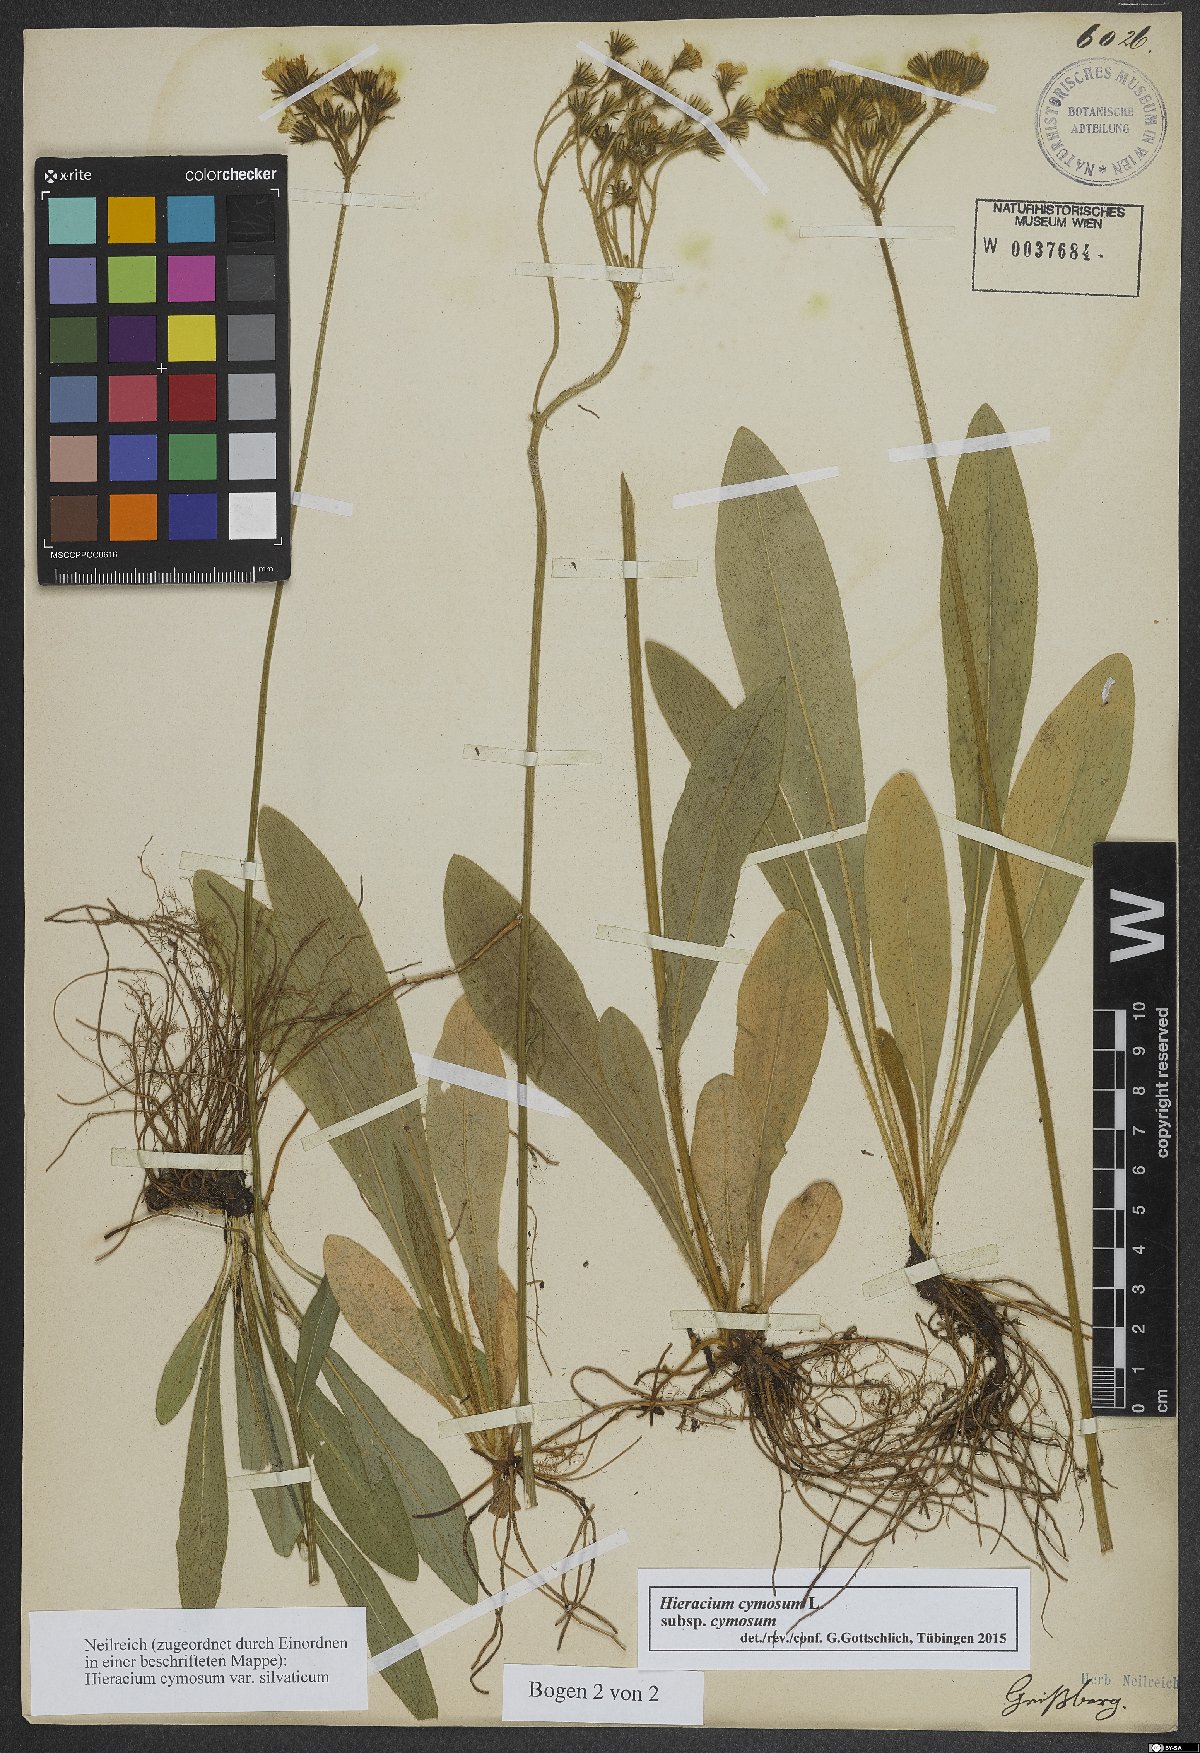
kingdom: Plantae
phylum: Tracheophyta
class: Magnoliopsida
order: Asterales
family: Asteraceae
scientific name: Asteraceae
